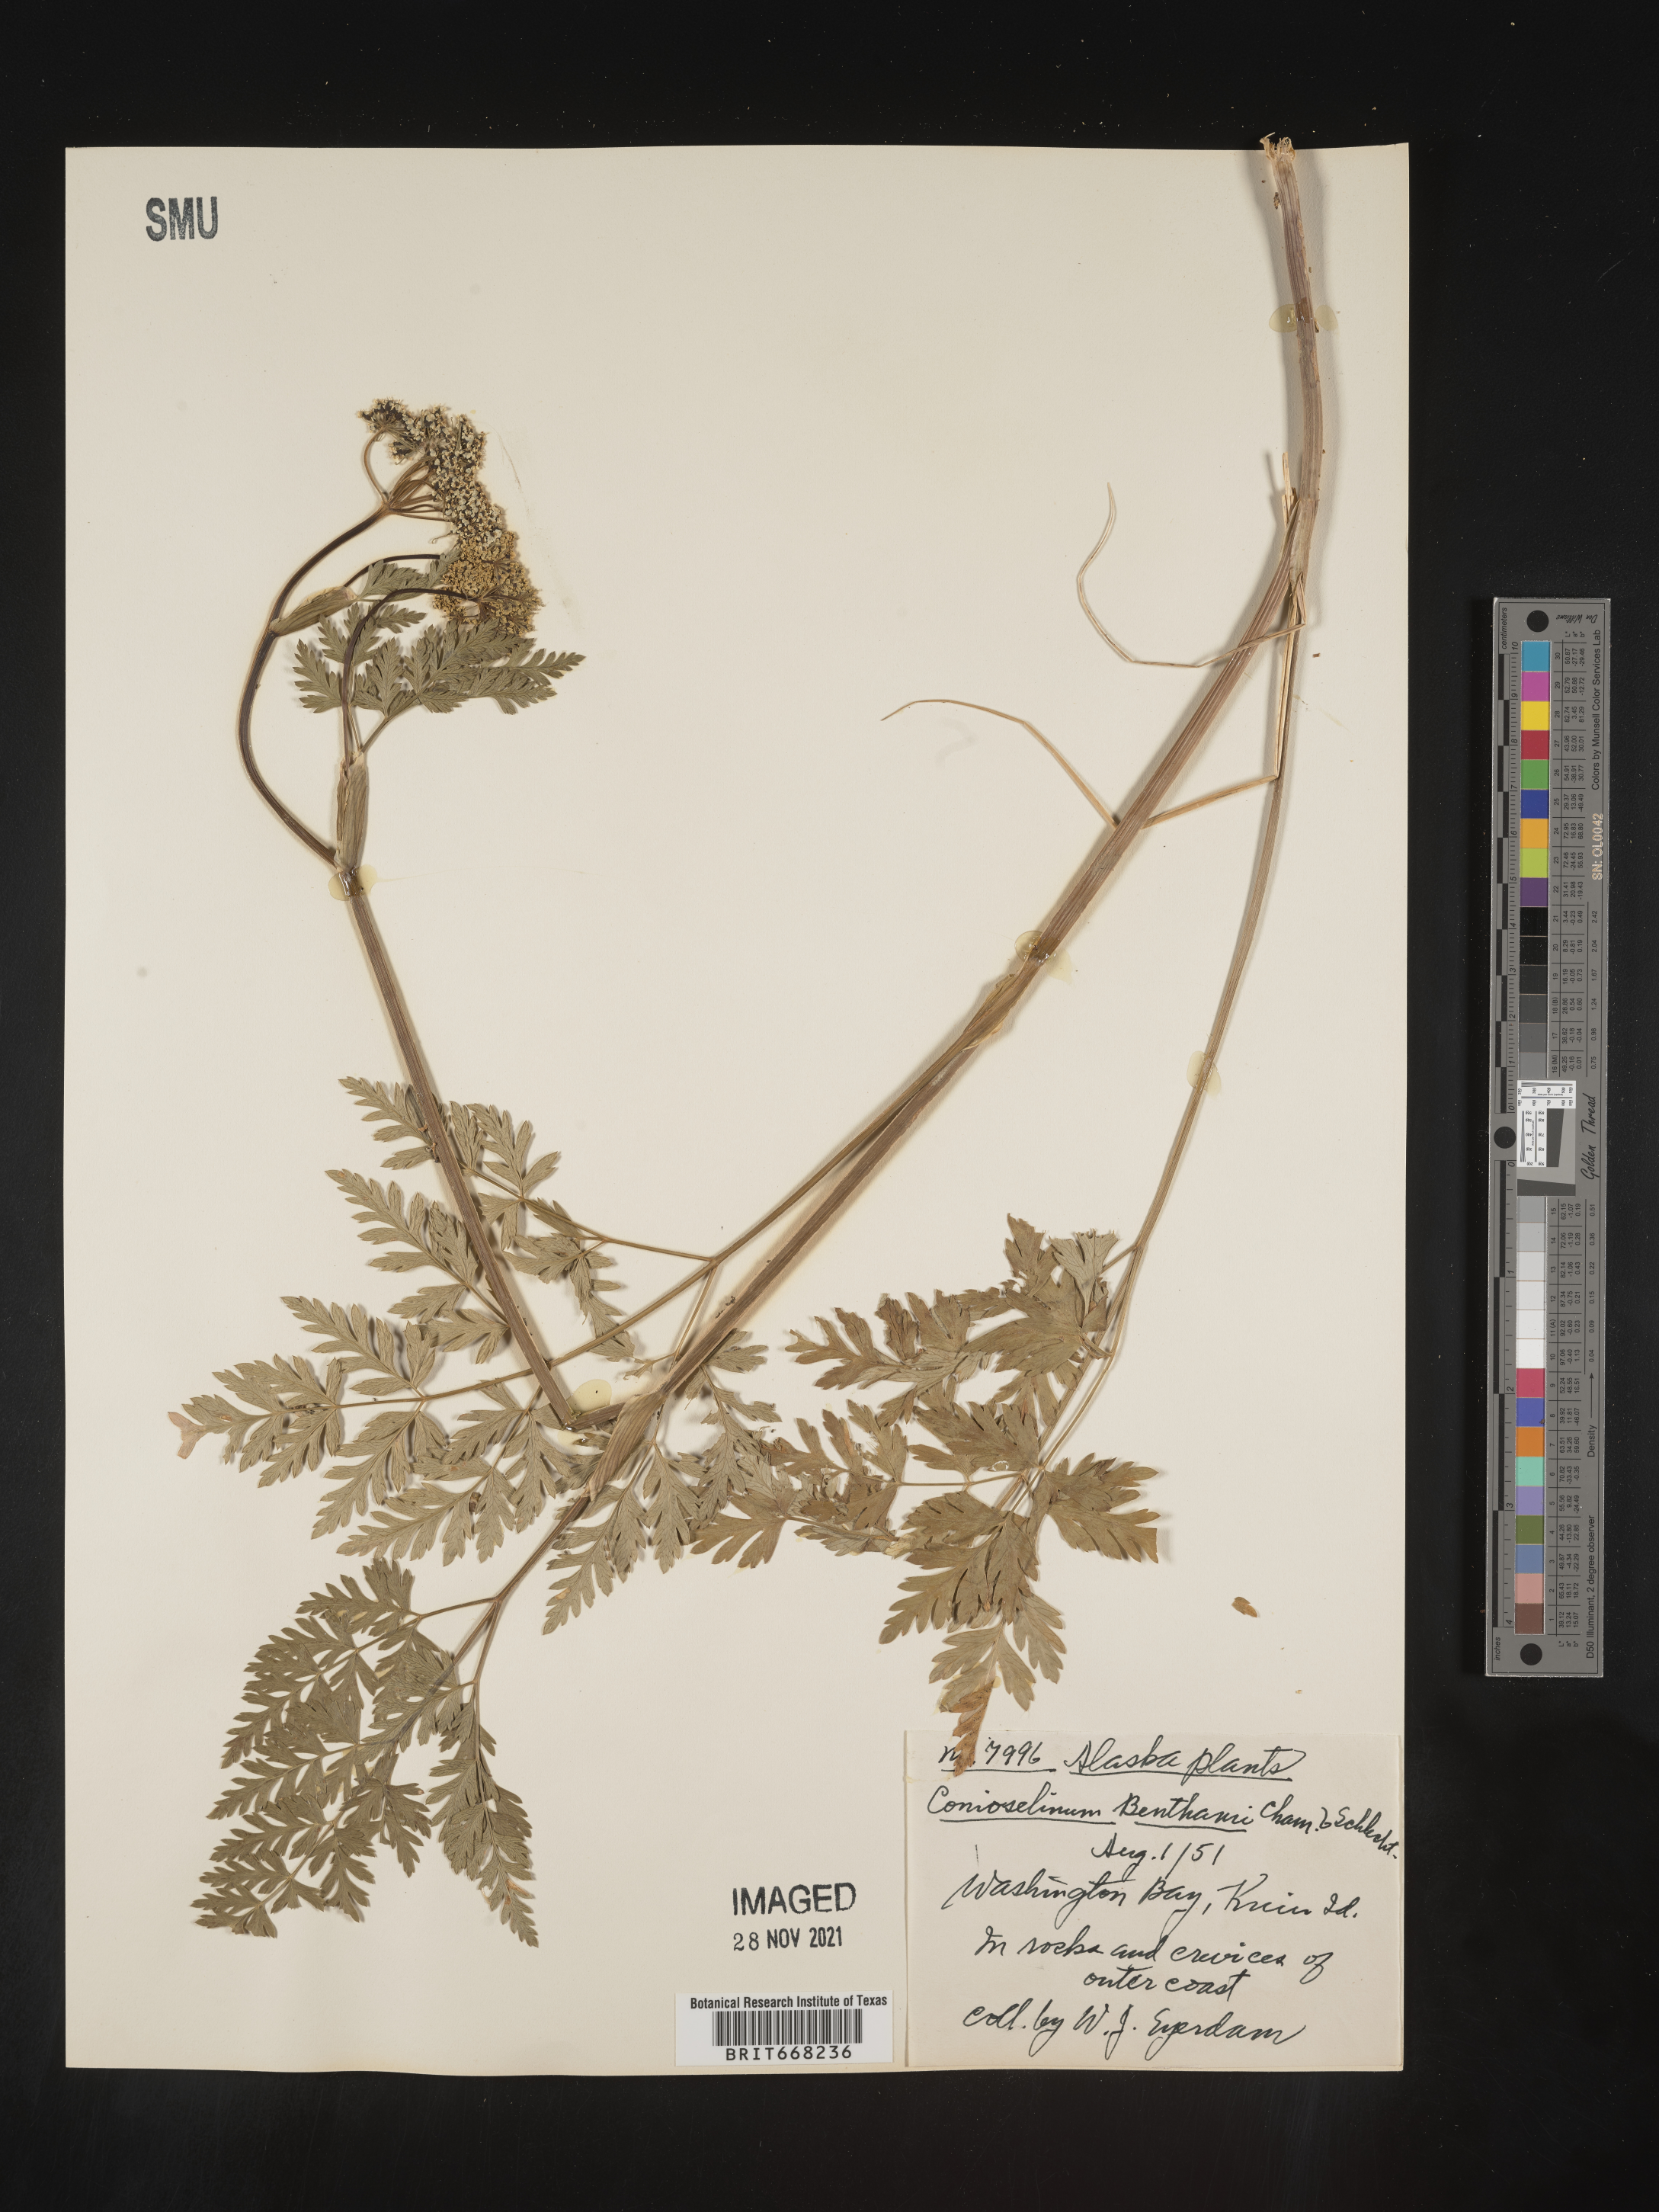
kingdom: Plantae
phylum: Tracheophyta
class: Magnoliopsida
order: Apiales
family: Apiaceae
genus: Conioselinum
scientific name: Conioselinum
